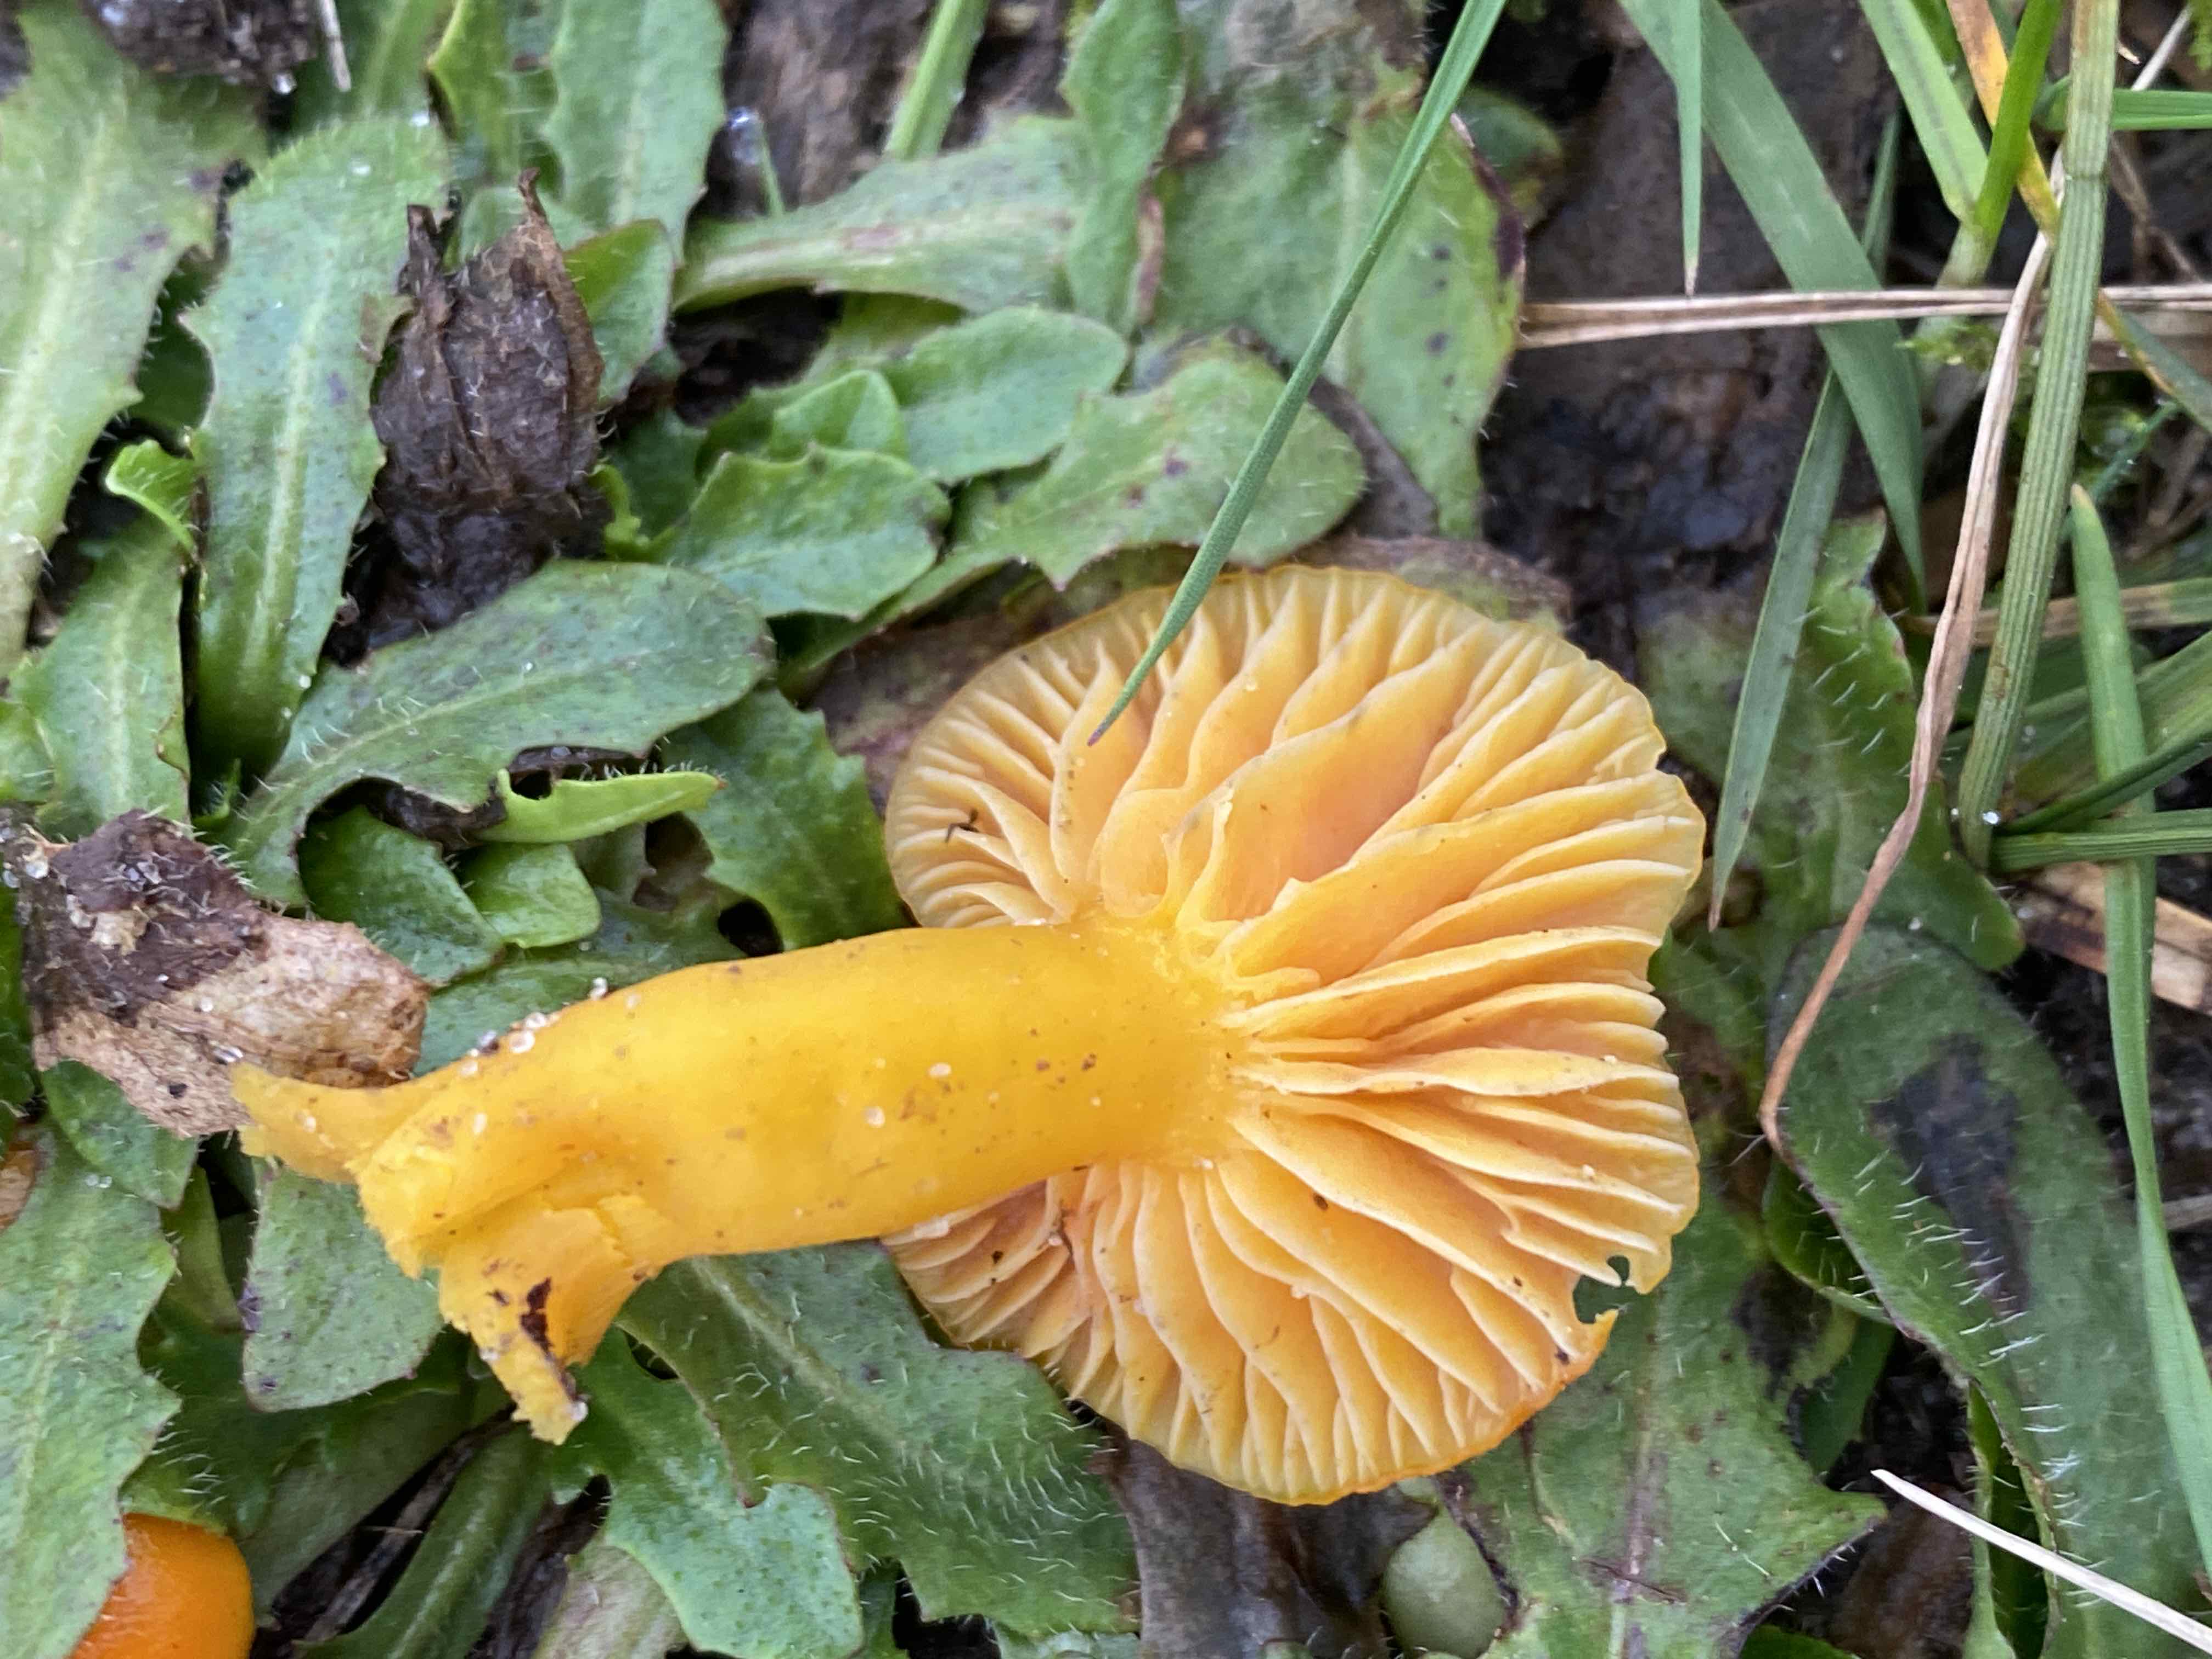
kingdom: Fungi
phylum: Basidiomycota
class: Agaricomycetes
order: Agaricales
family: Hygrophoraceae
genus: Hygrocybe
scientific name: Hygrocybe ceracea
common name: voksgul vokshat
